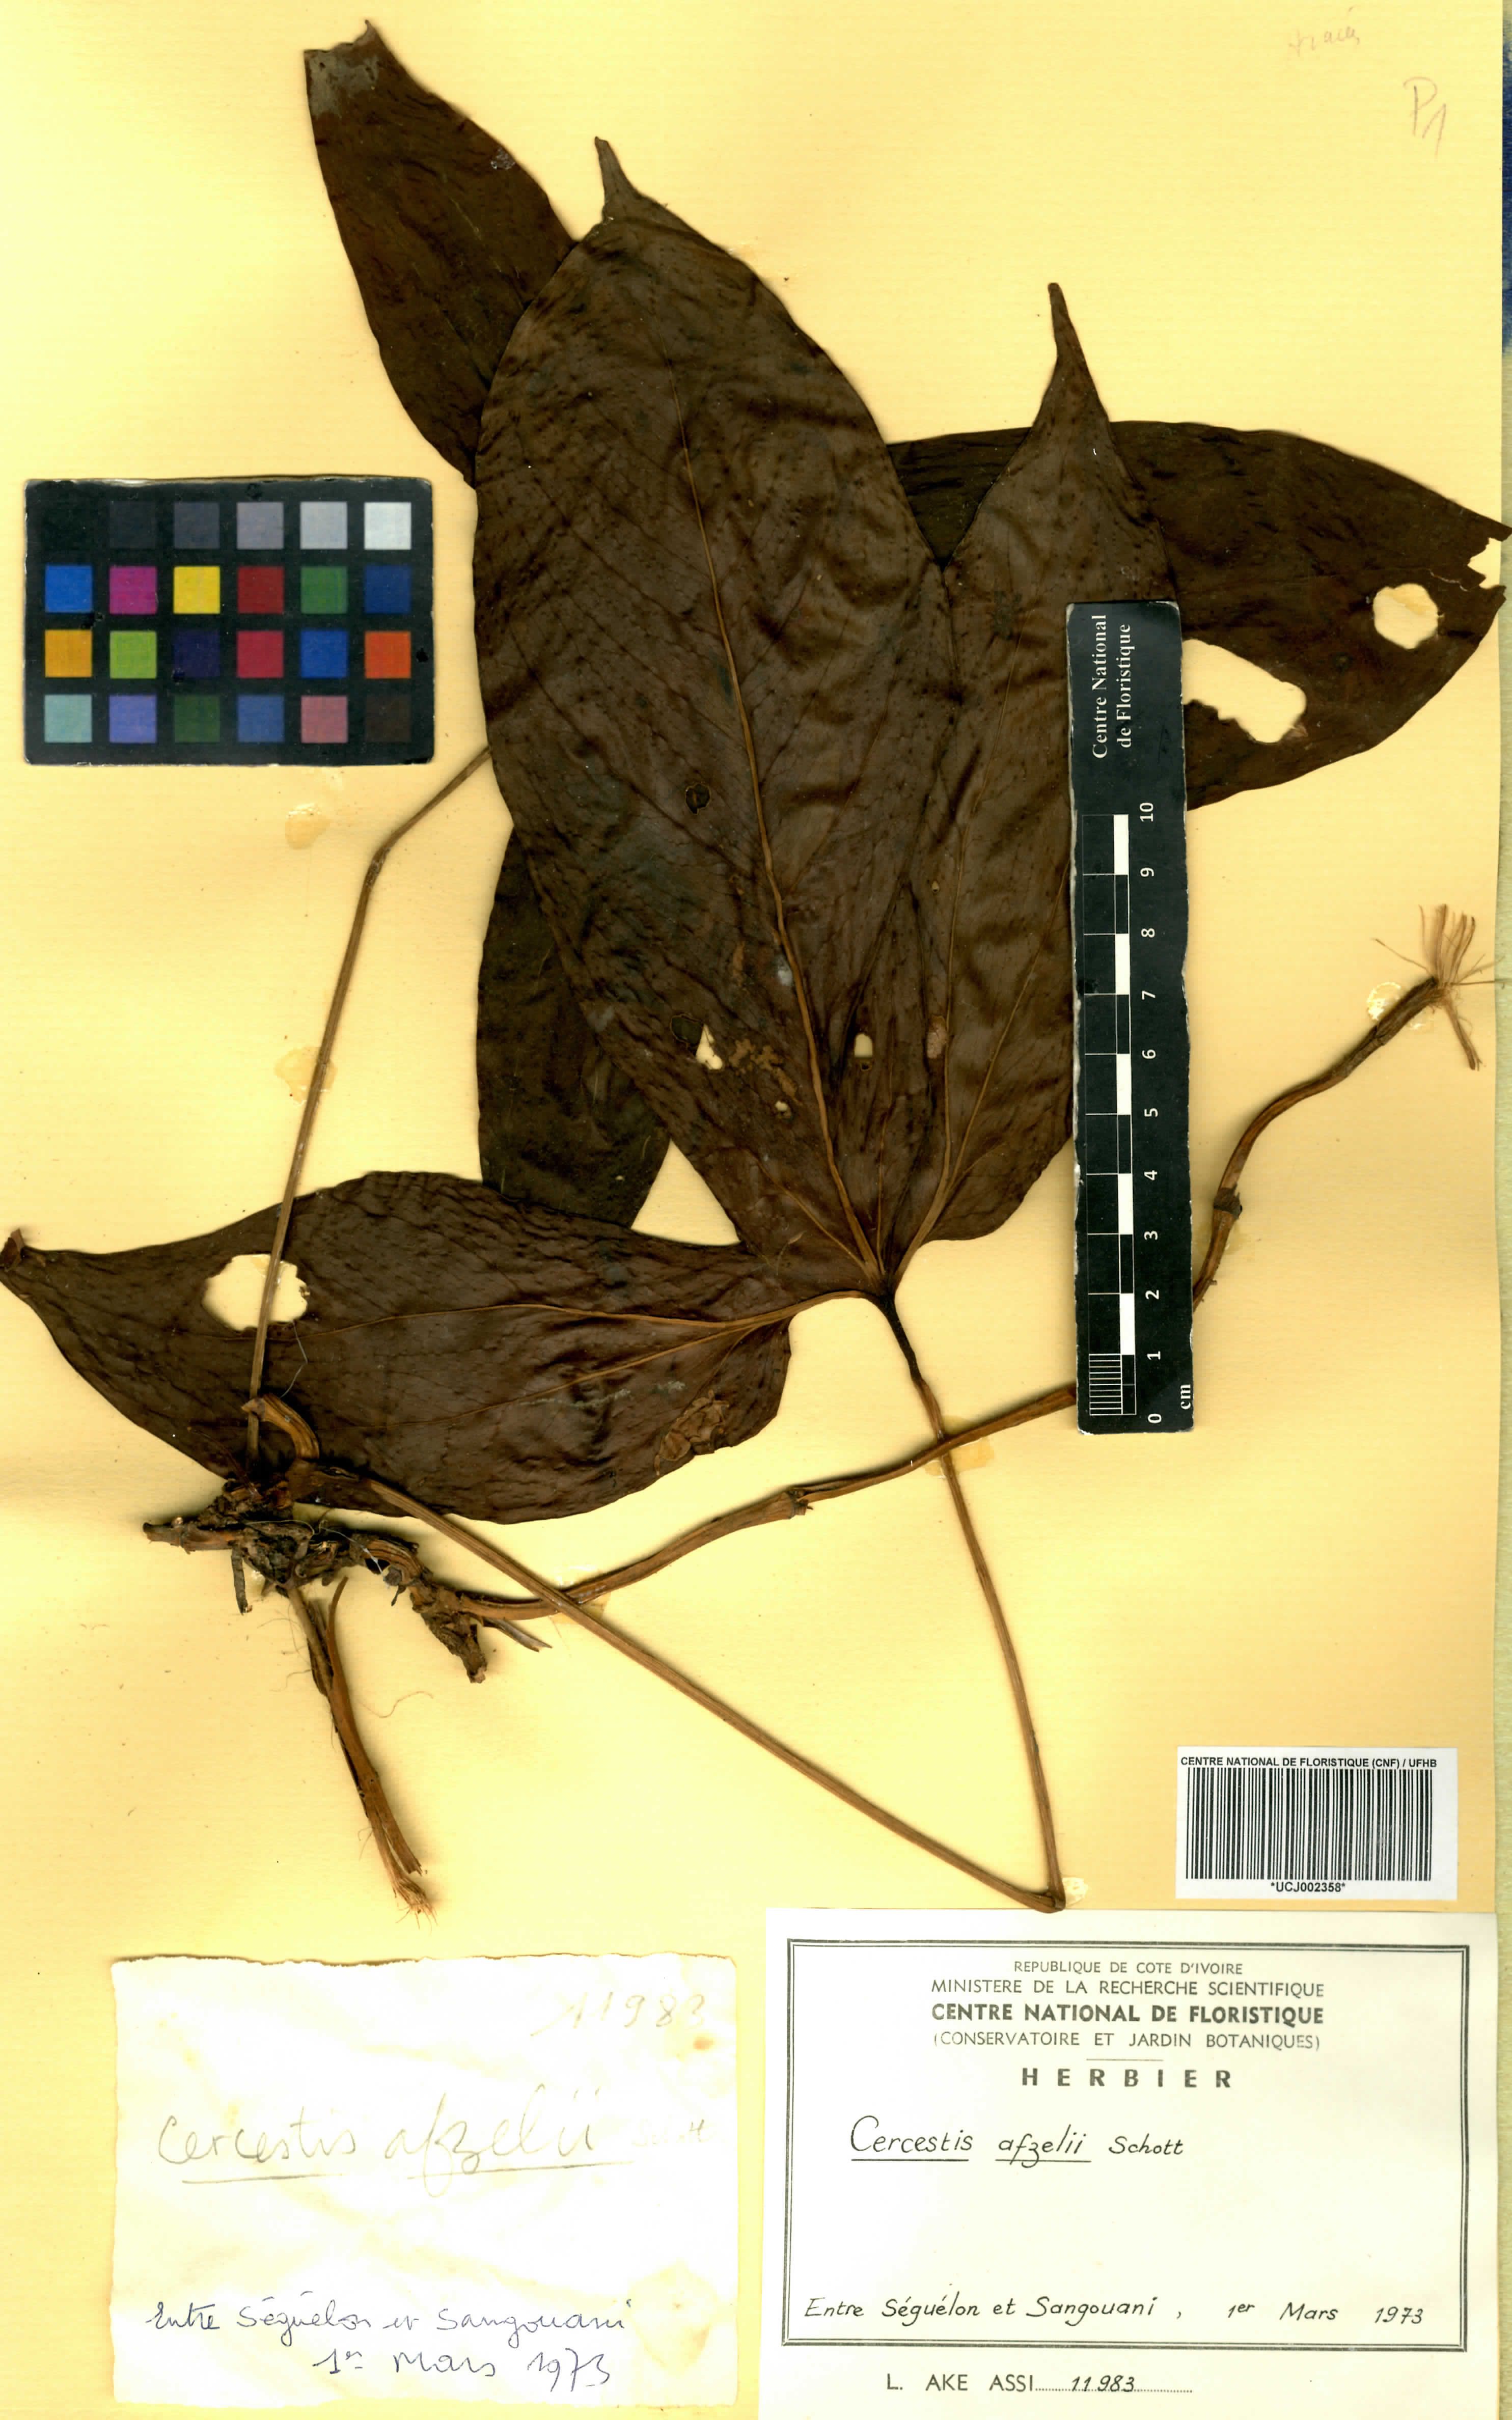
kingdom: Plantae
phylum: Tracheophyta
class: Liliopsida
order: Alismatales
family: Araceae
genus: Cercestis
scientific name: Cercestis afzelii
